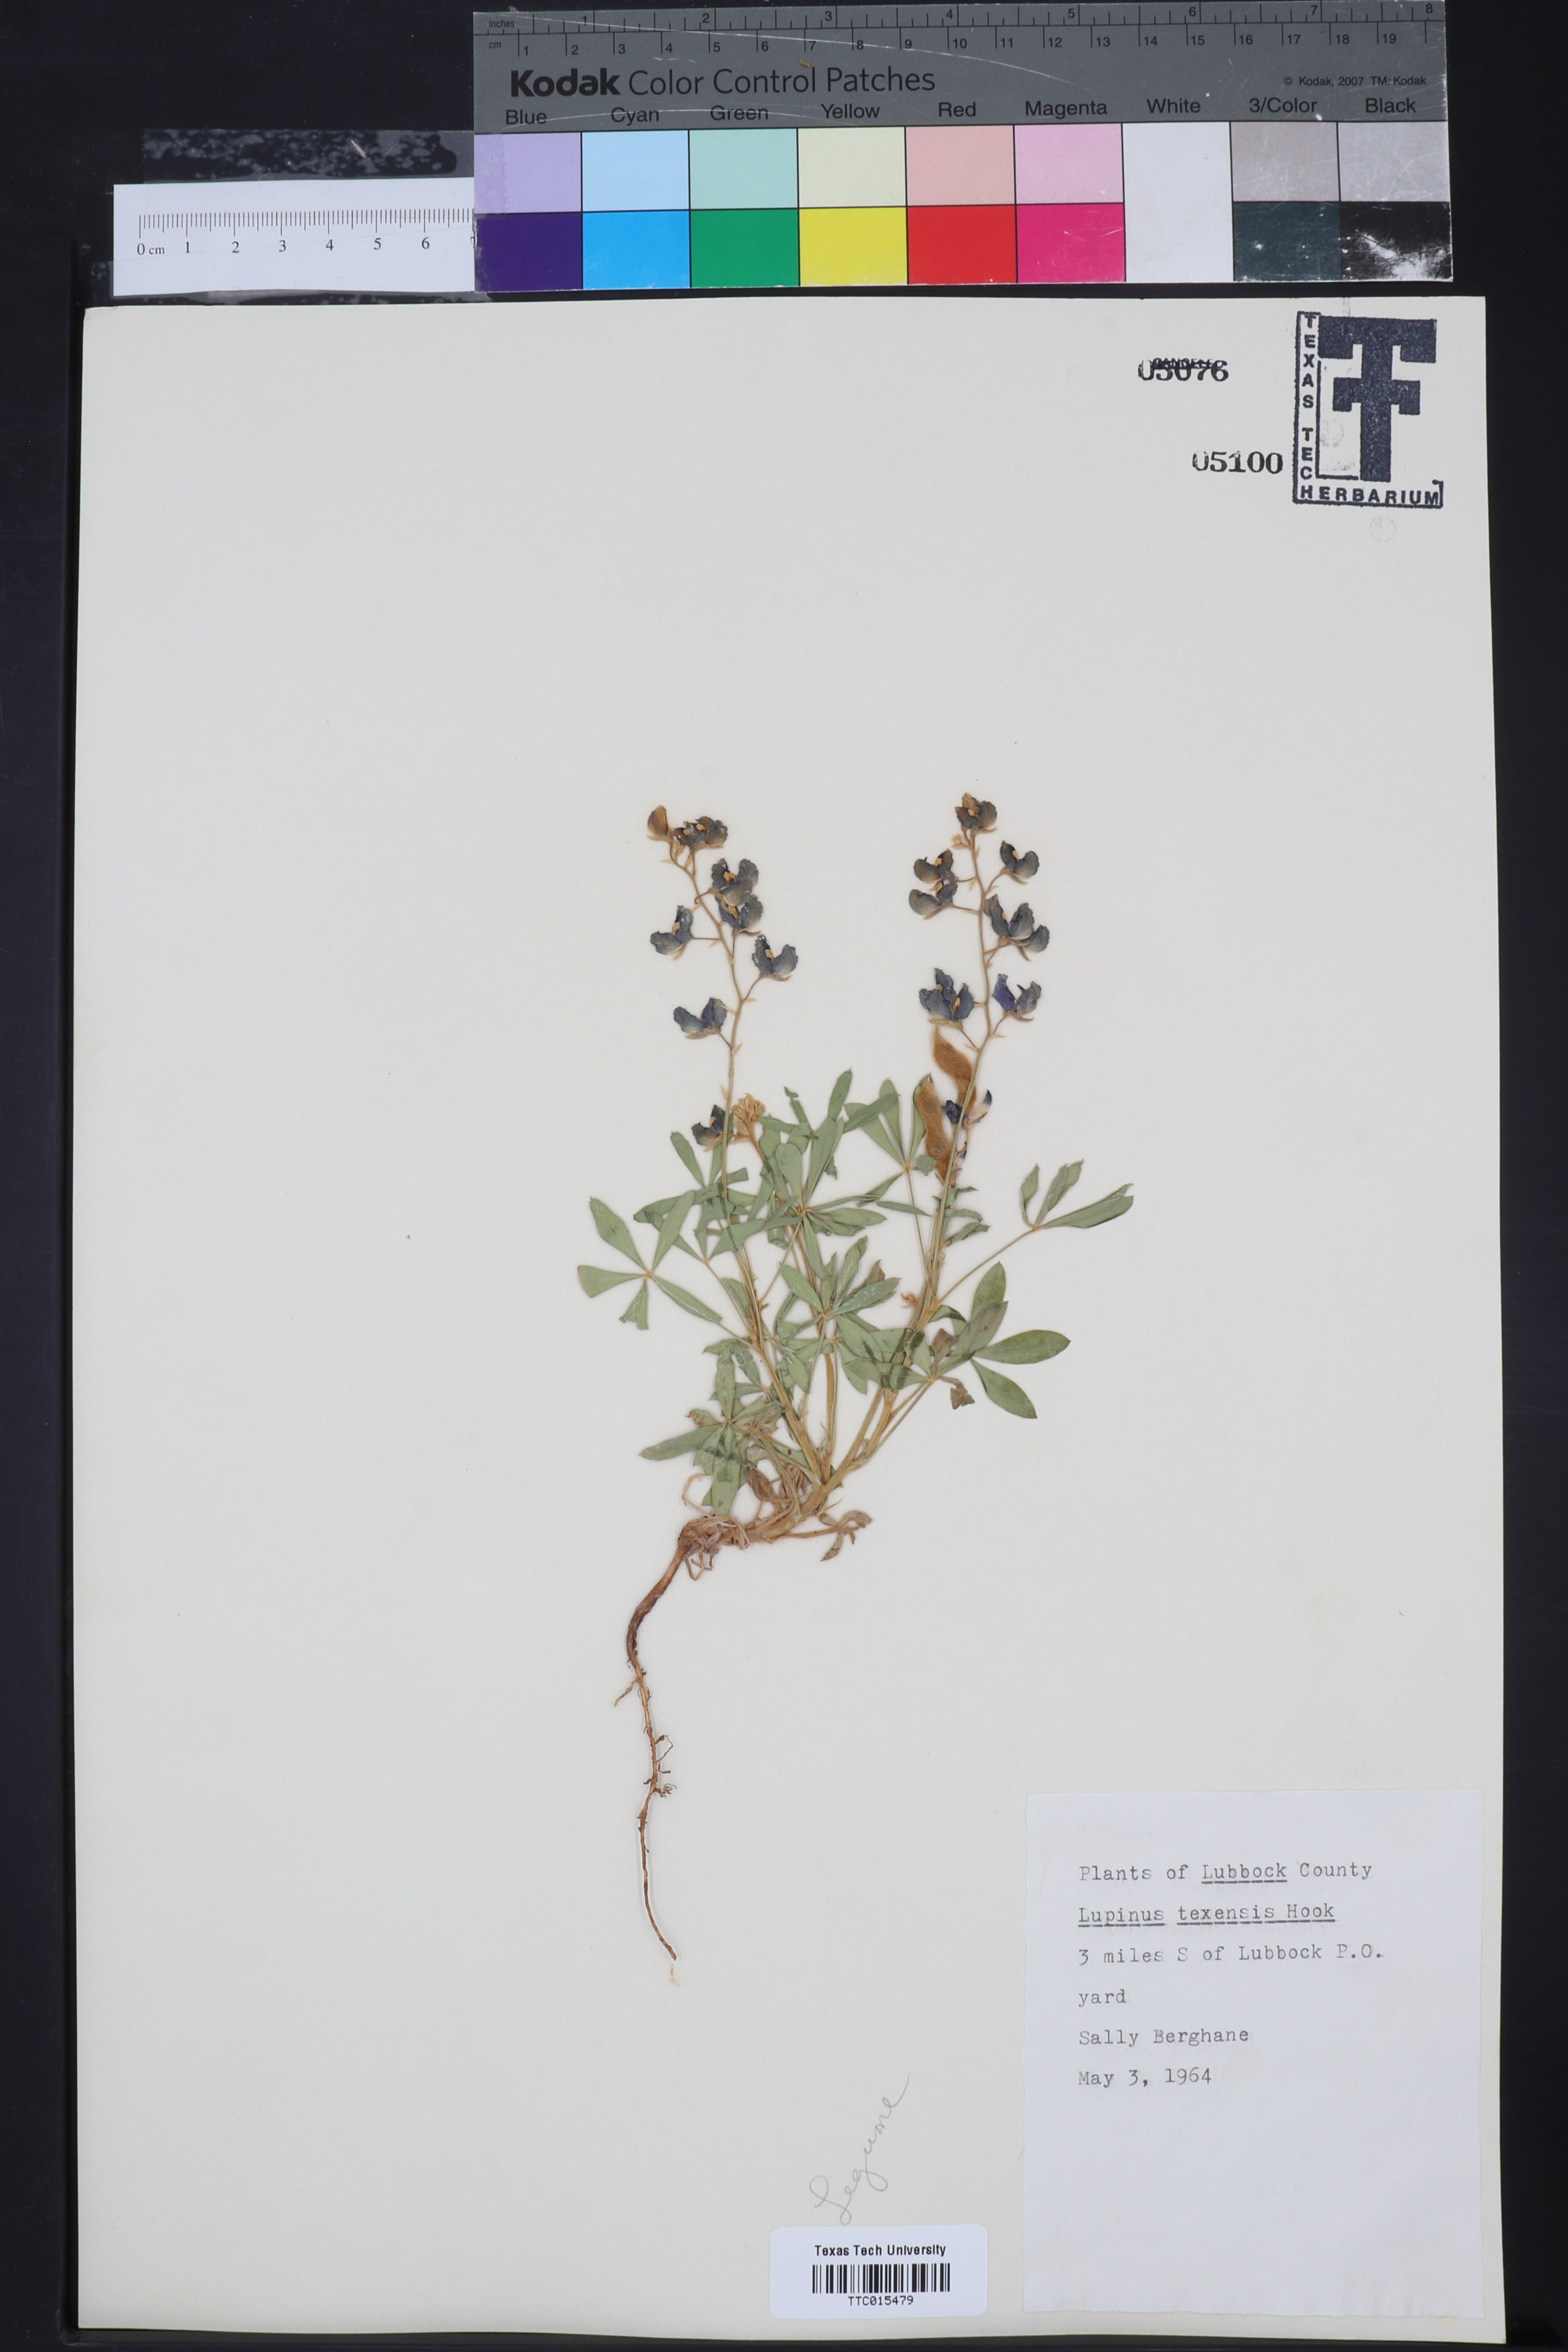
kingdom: Plantae
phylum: Tracheophyta
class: Magnoliopsida
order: Fabales
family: Fabaceae
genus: Lupinus
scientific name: Lupinus texensis
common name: Texas bluebonnet
